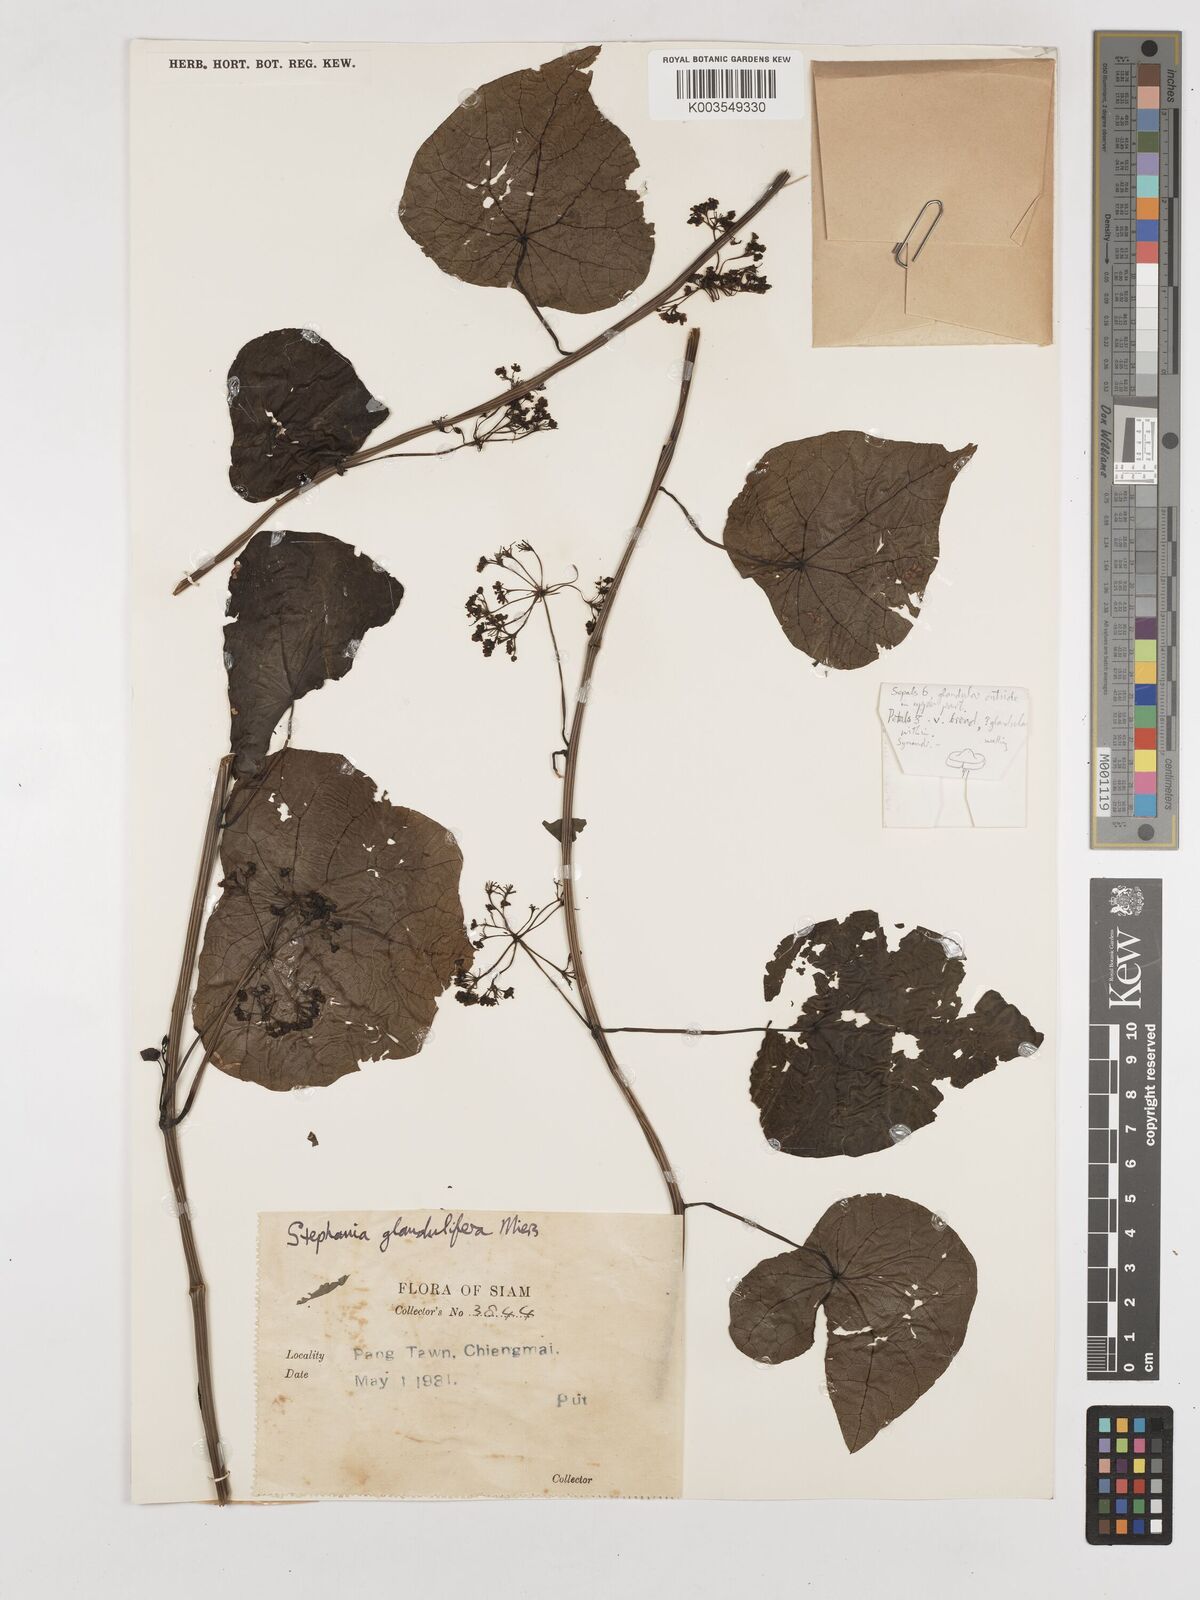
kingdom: Plantae
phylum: Tracheophyta
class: Magnoliopsida
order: Ranunculales
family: Menispermaceae
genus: Stephania
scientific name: Stephania glandulifera
